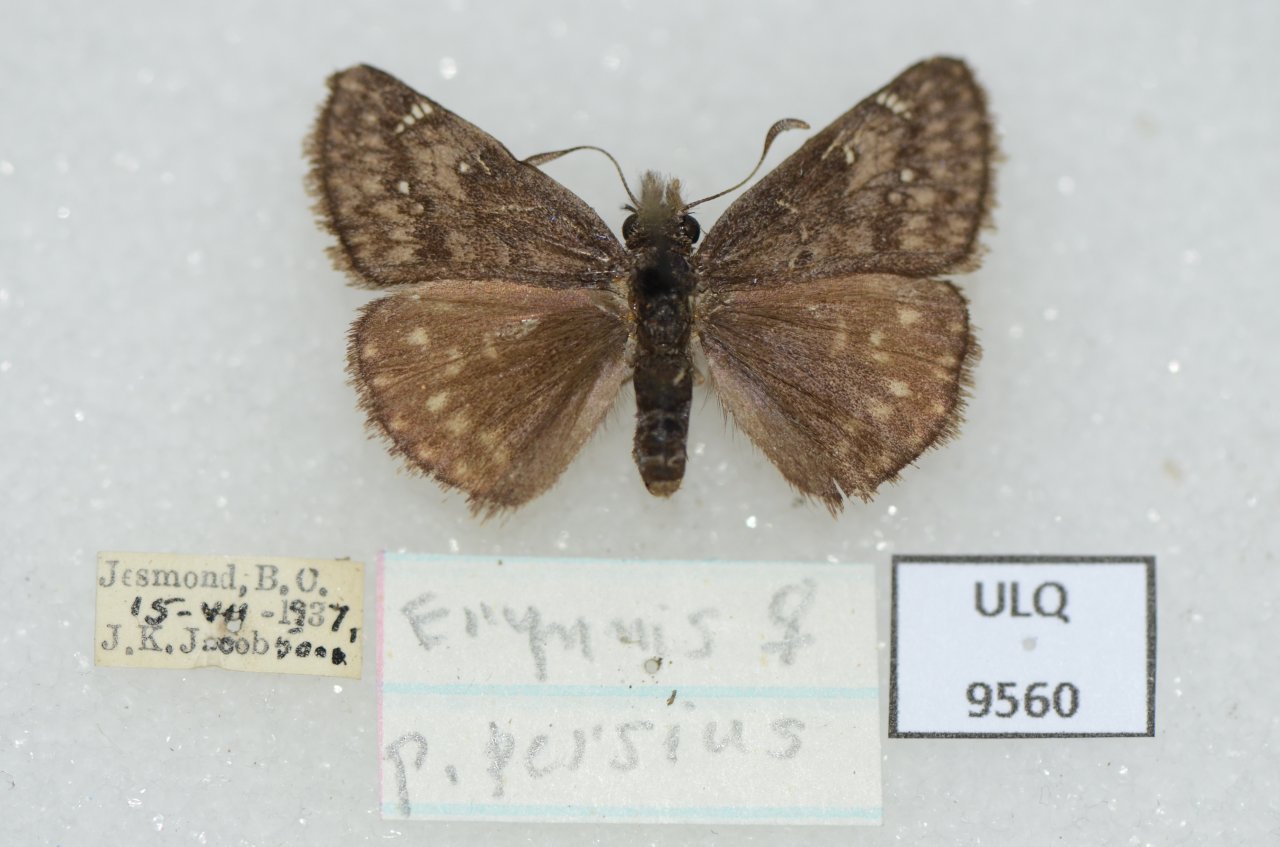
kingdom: Animalia
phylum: Arthropoda
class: Insecta
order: Lepidoptera
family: Hesperiidae
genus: Gesta
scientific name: Gesta
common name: Persius Duskywing
